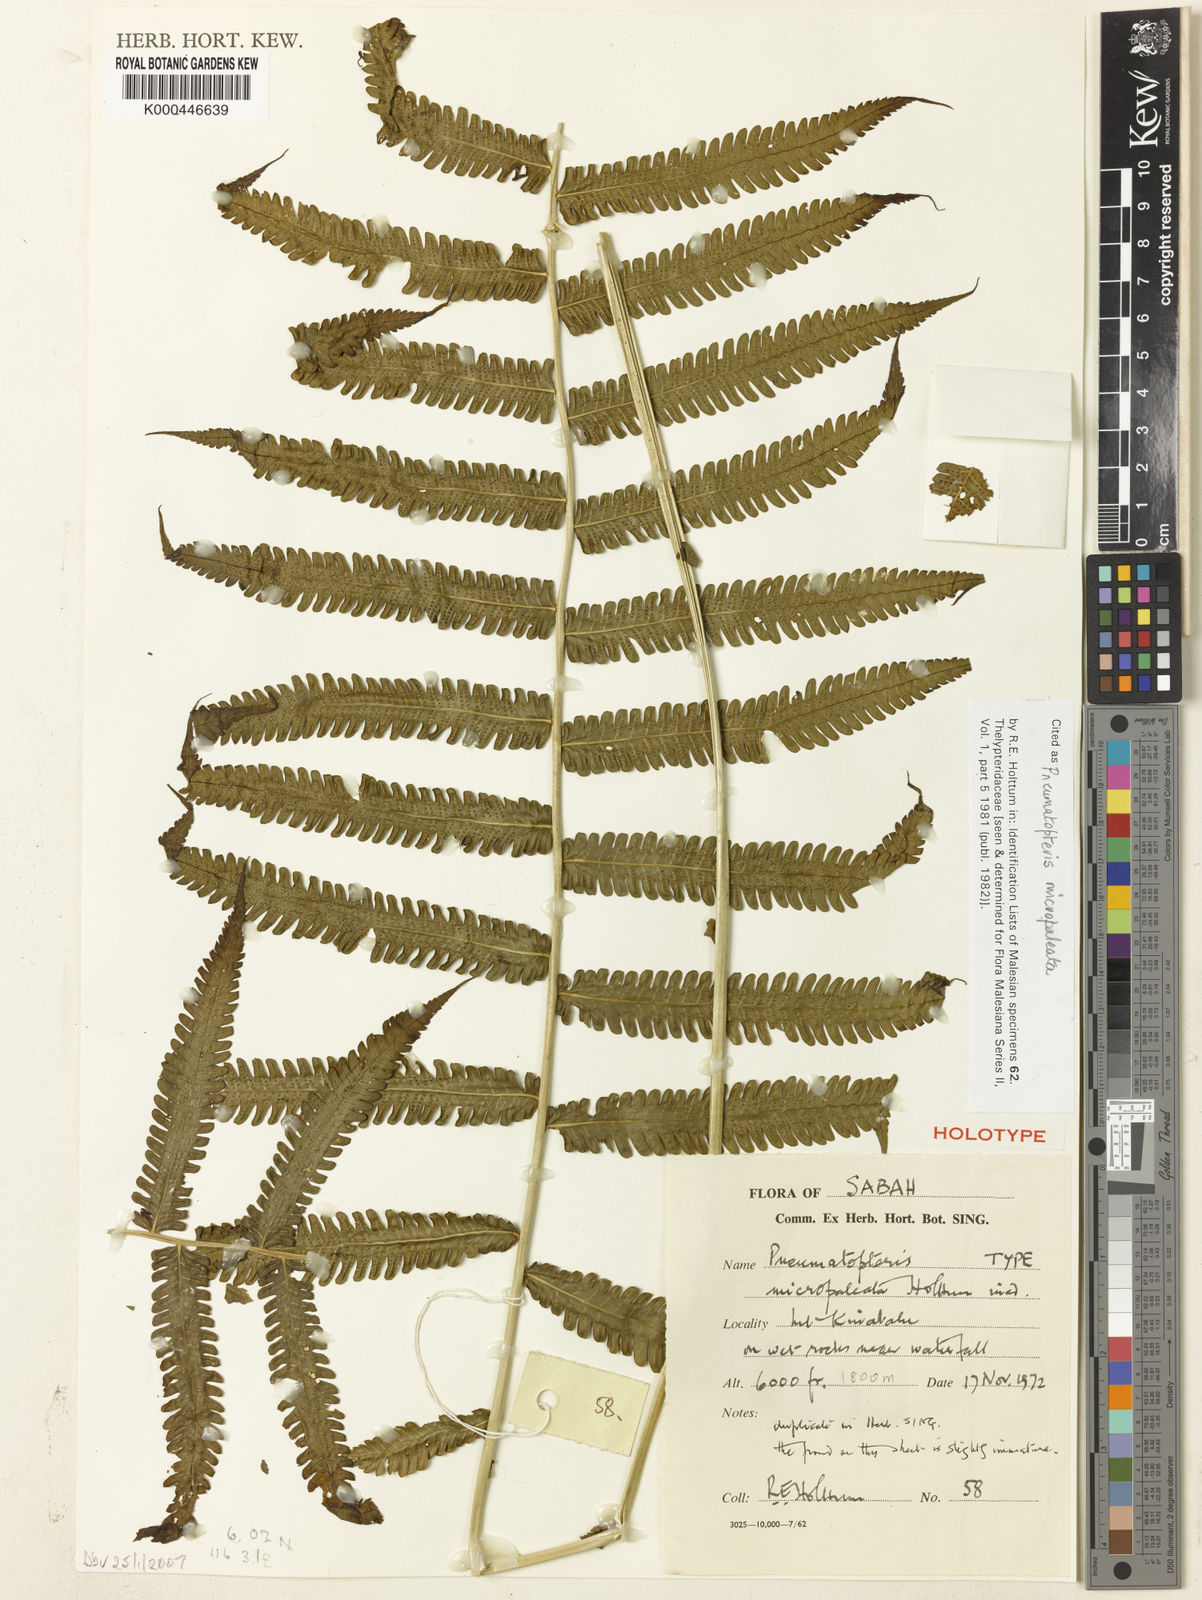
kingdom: Plantae
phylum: Tracheophyta
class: Polypodiopsida
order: Polypodiales
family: Thelypteridaceae
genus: Reholttumia
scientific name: Reholttumia micropaleata
